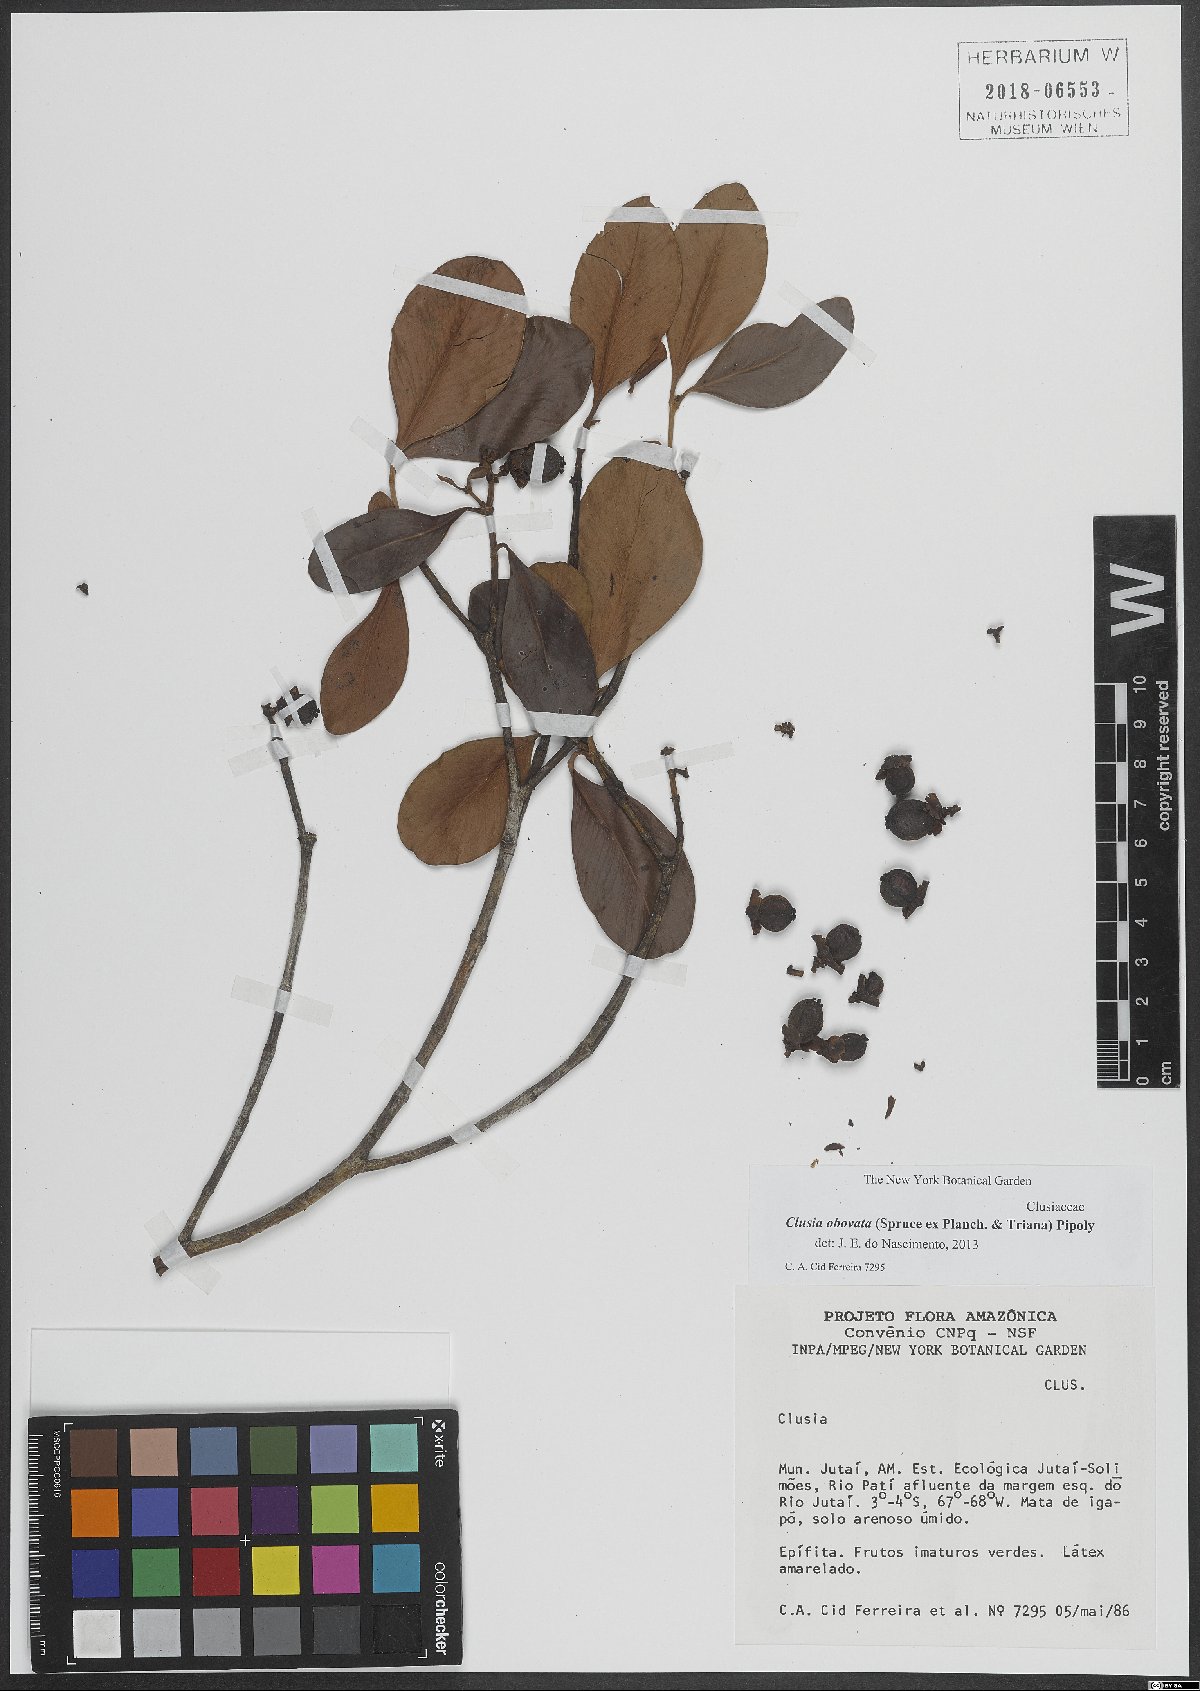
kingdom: Plantae
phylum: Tracheophyta
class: Magnoliopsida
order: Malpighiales
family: Clusiaceae
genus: Clusia
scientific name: Clusia obovata
